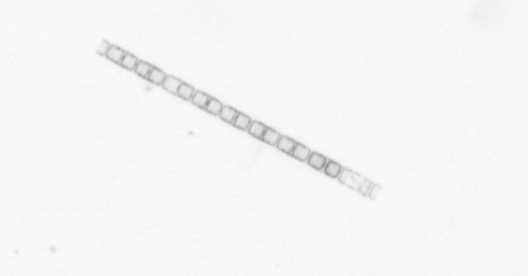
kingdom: Chromista
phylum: Ochrophyta
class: Bacillariophyceae
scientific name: Bacillariophyceae
